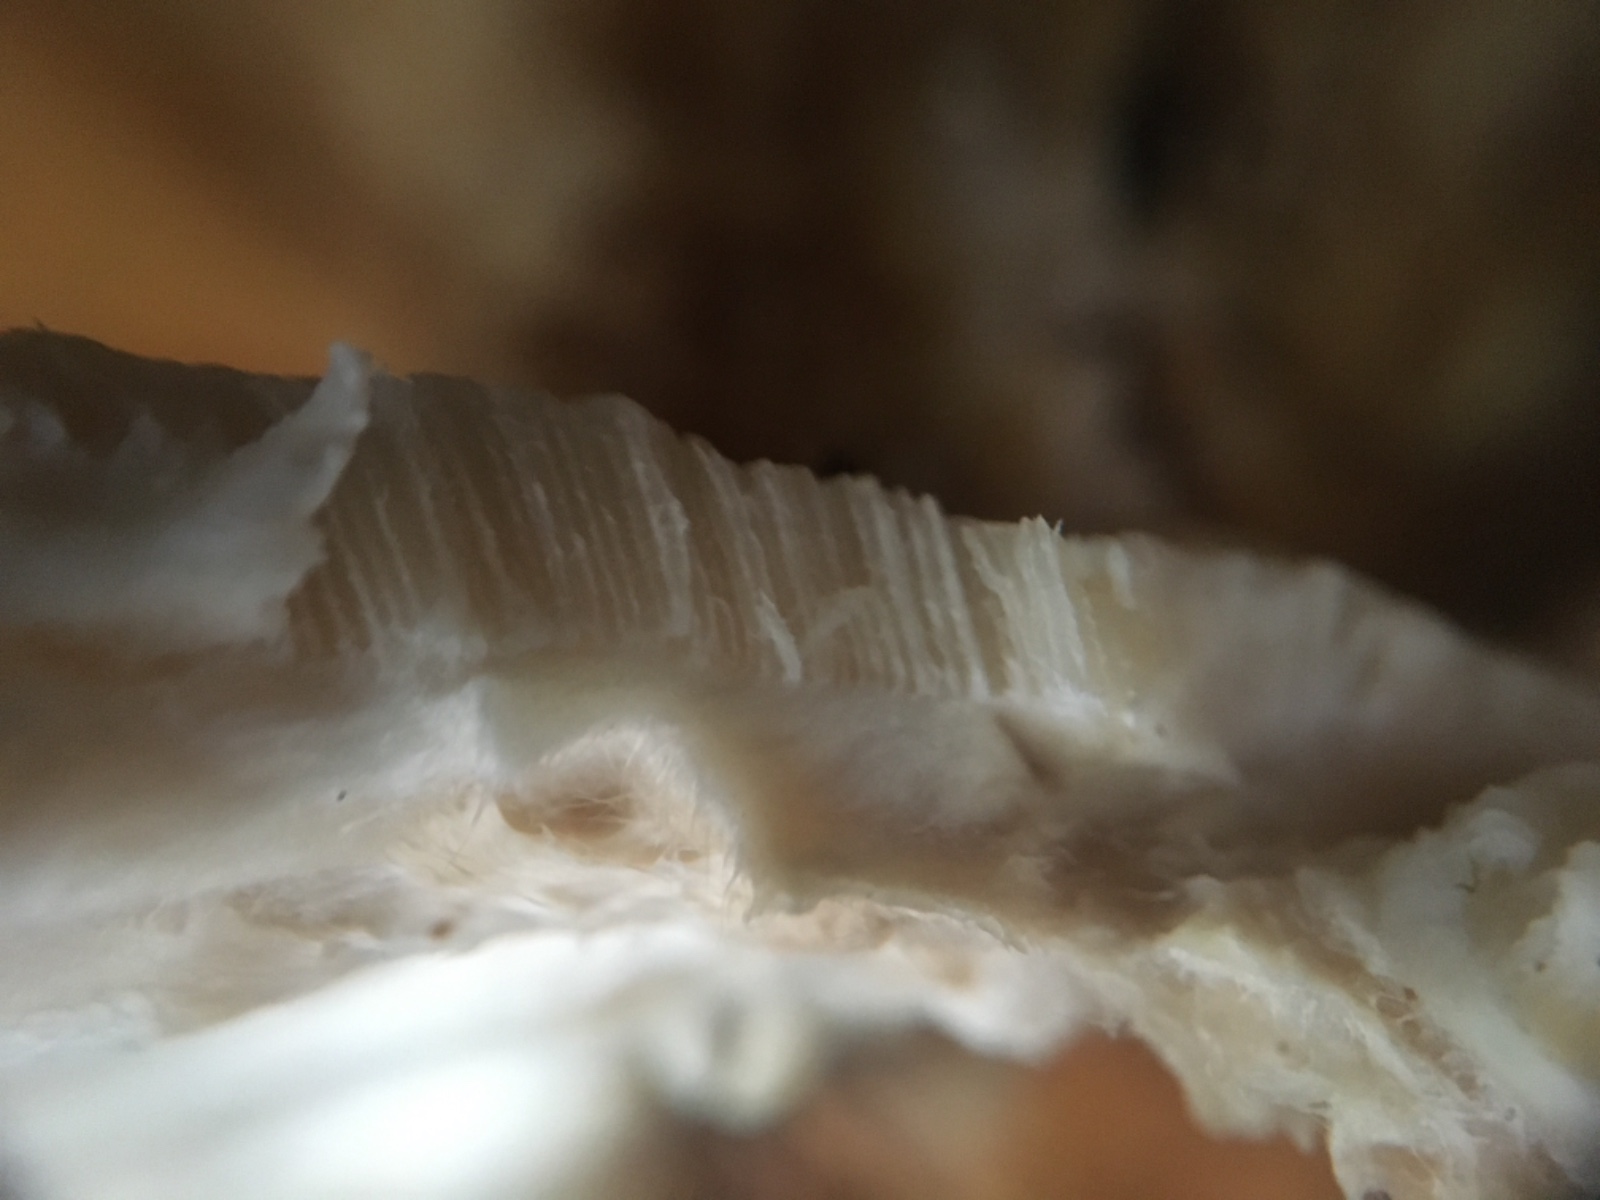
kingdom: Fungi
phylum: Basidiomycota
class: Agaricomycetes
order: Polyporales
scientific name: Polyporales
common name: poresvampordenen
